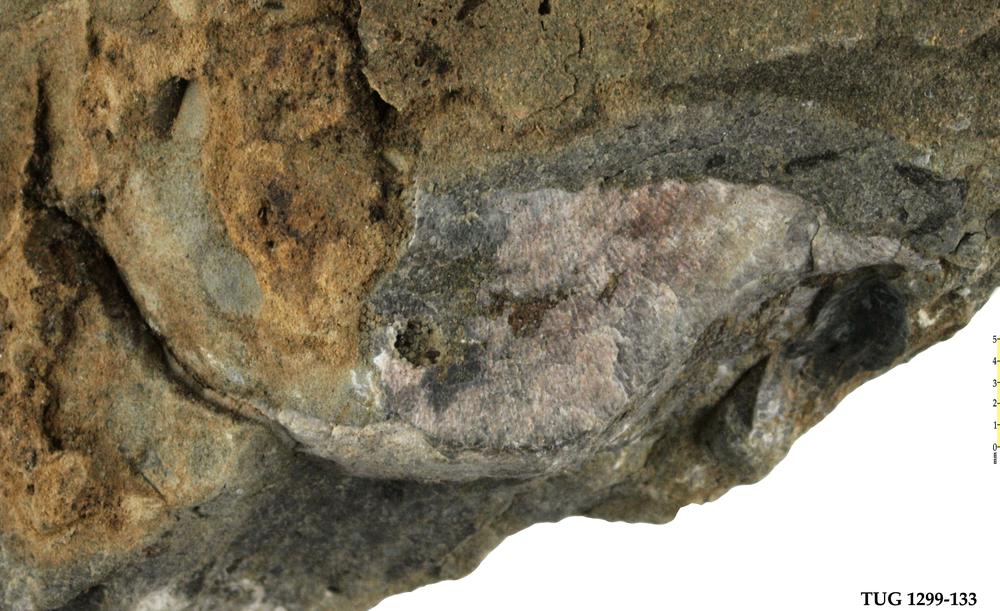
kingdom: Animalia
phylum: Brachiopoda
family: Strophomenidae
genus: Leptaena
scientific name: Leptaena
